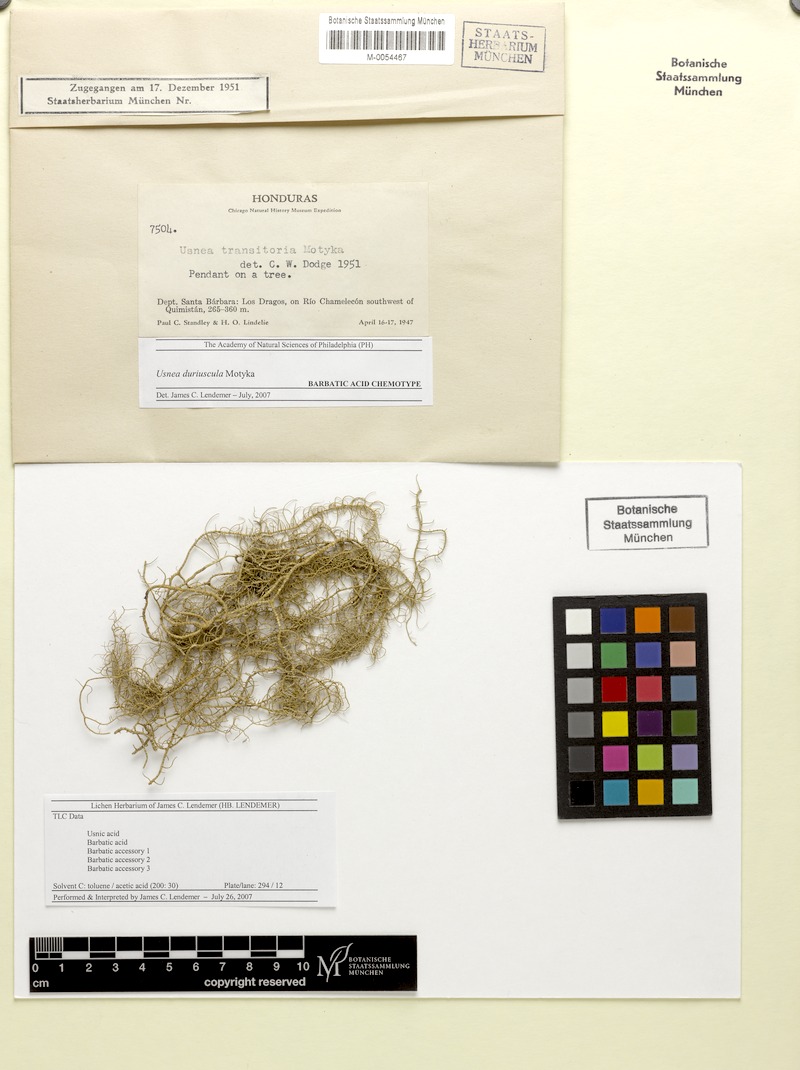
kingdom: Fungi
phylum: Ascomycota
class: Lecanoromycetes
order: Lecanorales
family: Parmeliaceae
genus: Usnea
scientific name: Usnea duriuscula
